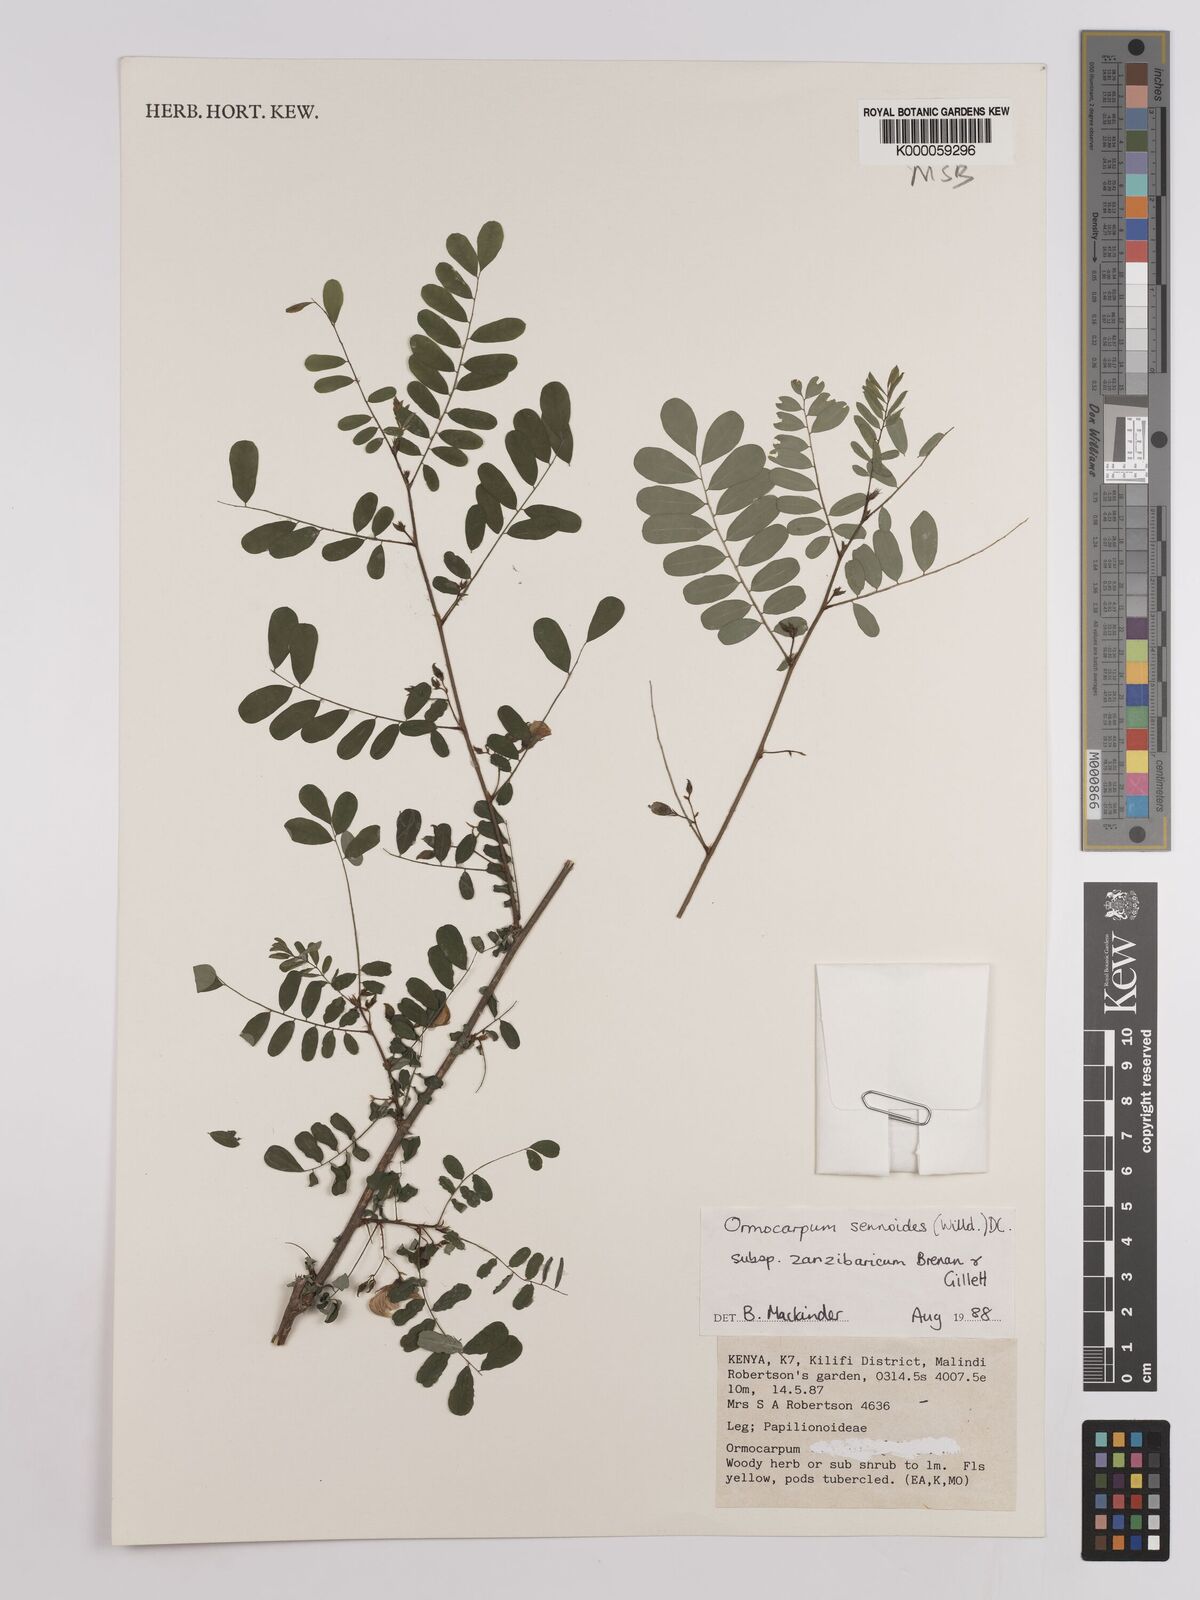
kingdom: Plantae
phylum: Tracheophyta
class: Magnoliopsida
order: Fabales
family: Fabaceae
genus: Ormocarpum
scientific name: Ormocarpum sennoides
